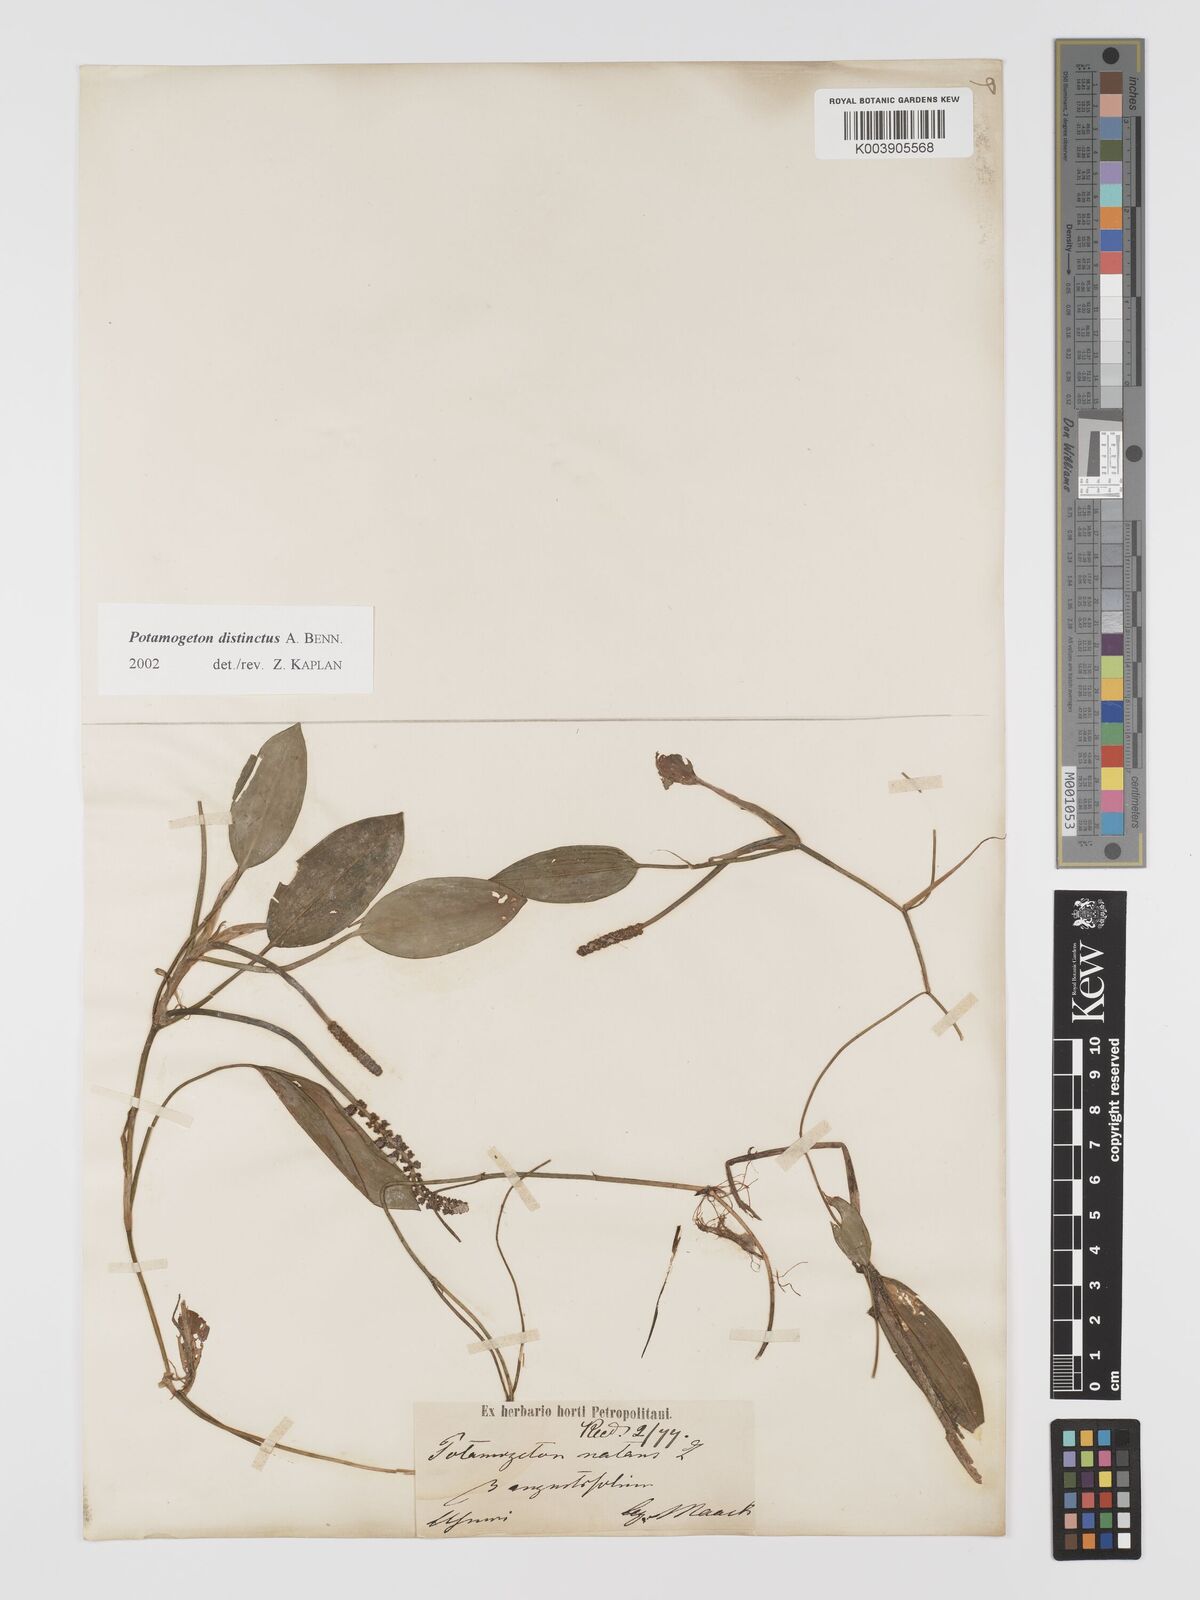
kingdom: Plantae
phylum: Tracheophyta
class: Liliopsida
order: Alismatales
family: Potamogetonaceae
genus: Potamogeton
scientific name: Potamogeton distinctus
